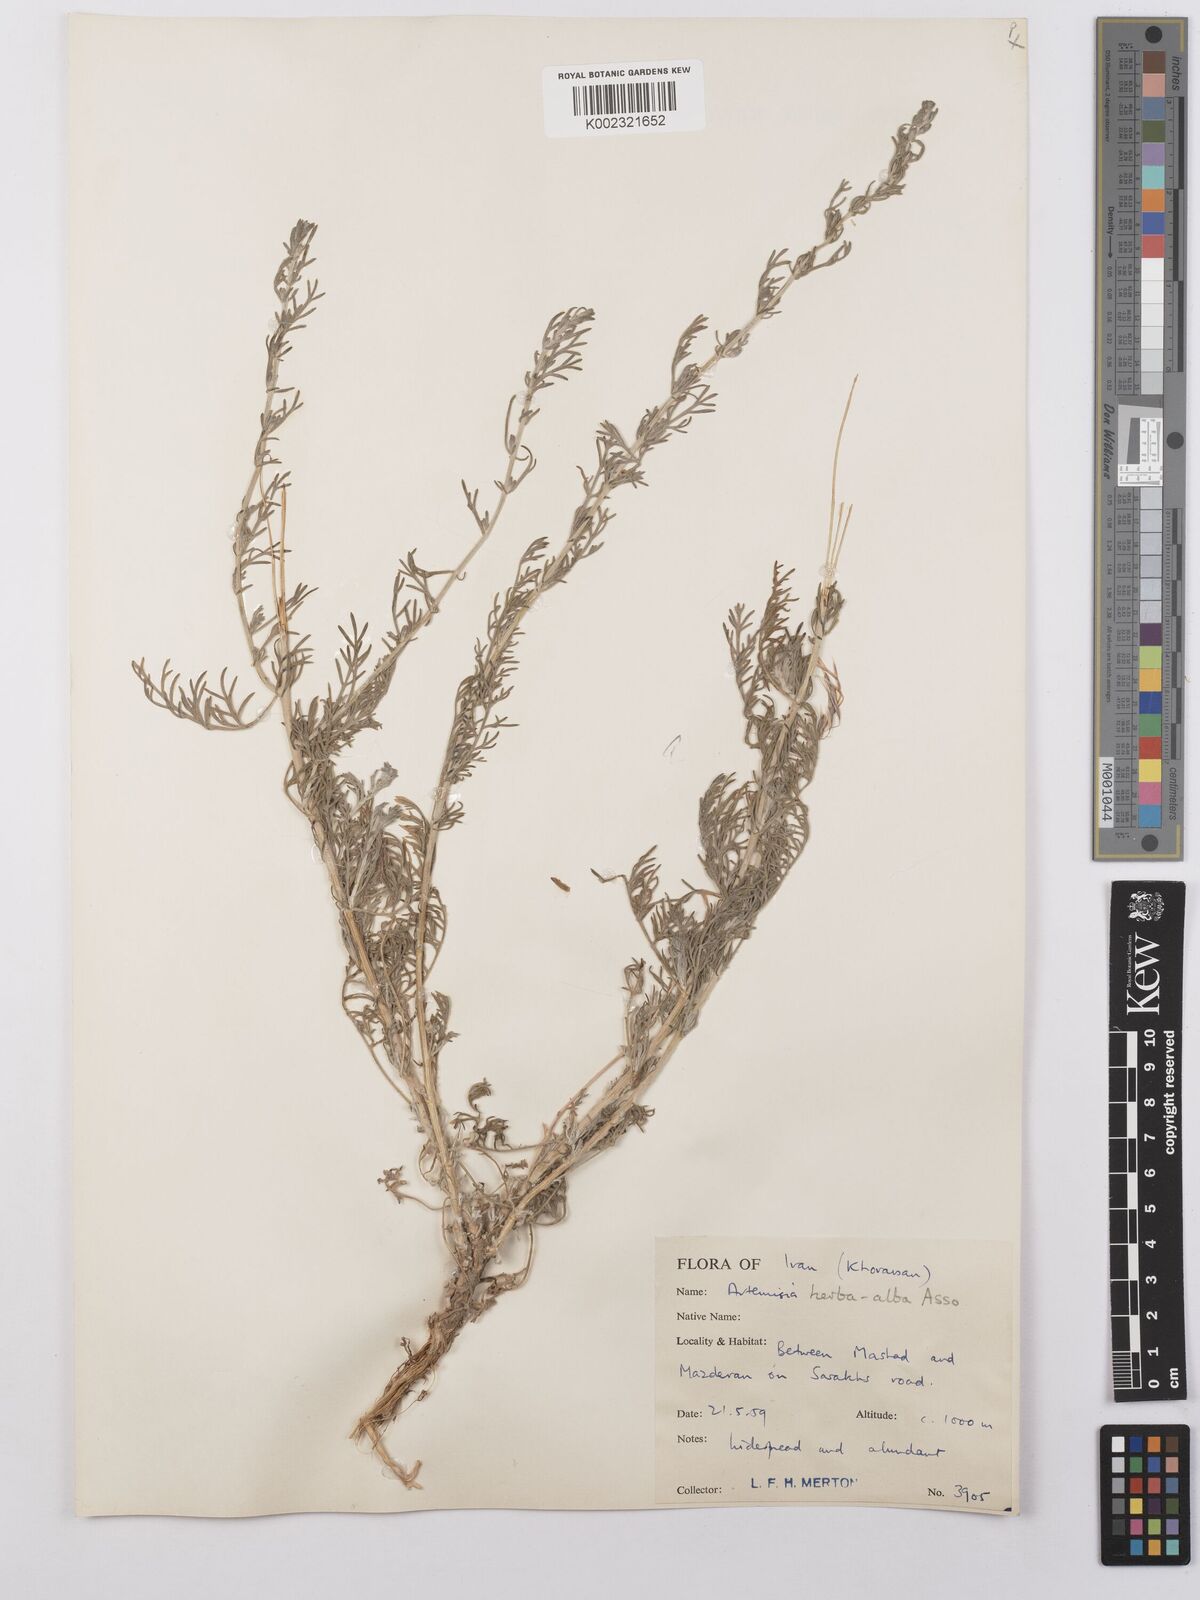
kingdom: Plantae
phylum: Tracheophyta
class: Magnoliopsida
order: Asterales
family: Asteraceae
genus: Artemisia
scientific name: Artemisia herba-alba
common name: White wormwood
